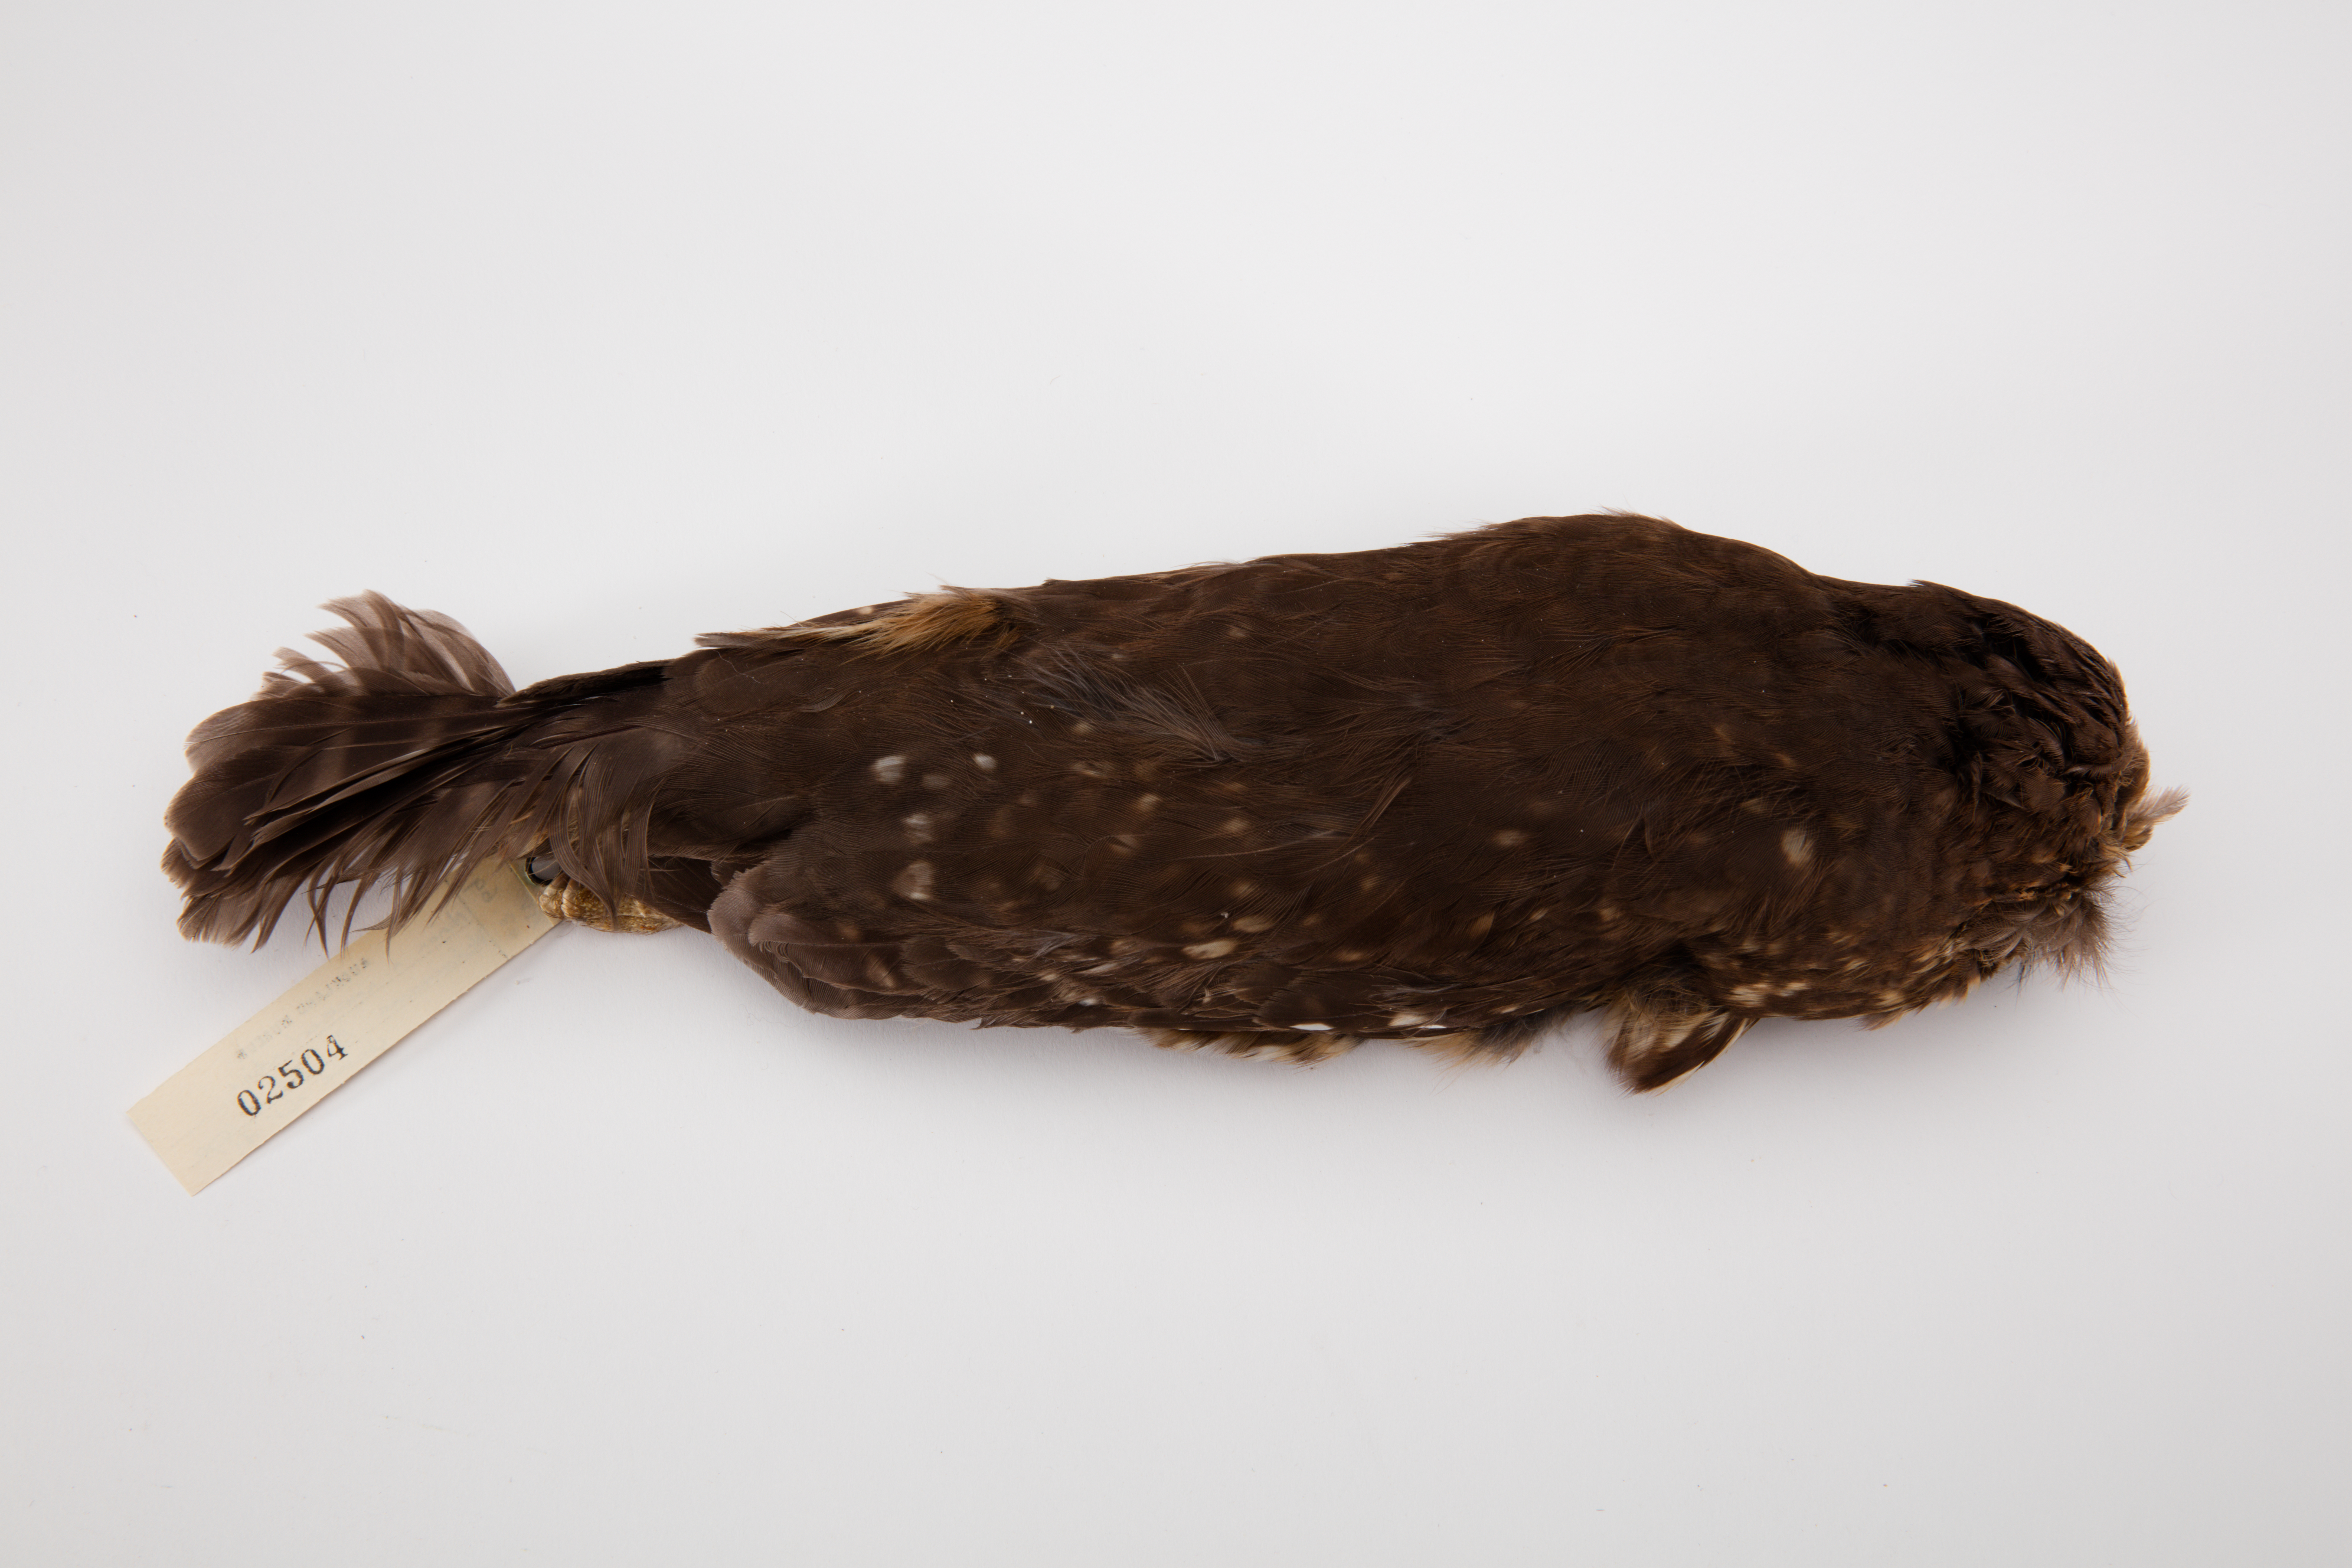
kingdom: Animalia
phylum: Chordata
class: Aves
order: Strigiformes
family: Strigidae
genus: Ninox
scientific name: Ninox novaeseelandiae
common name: Morepork
